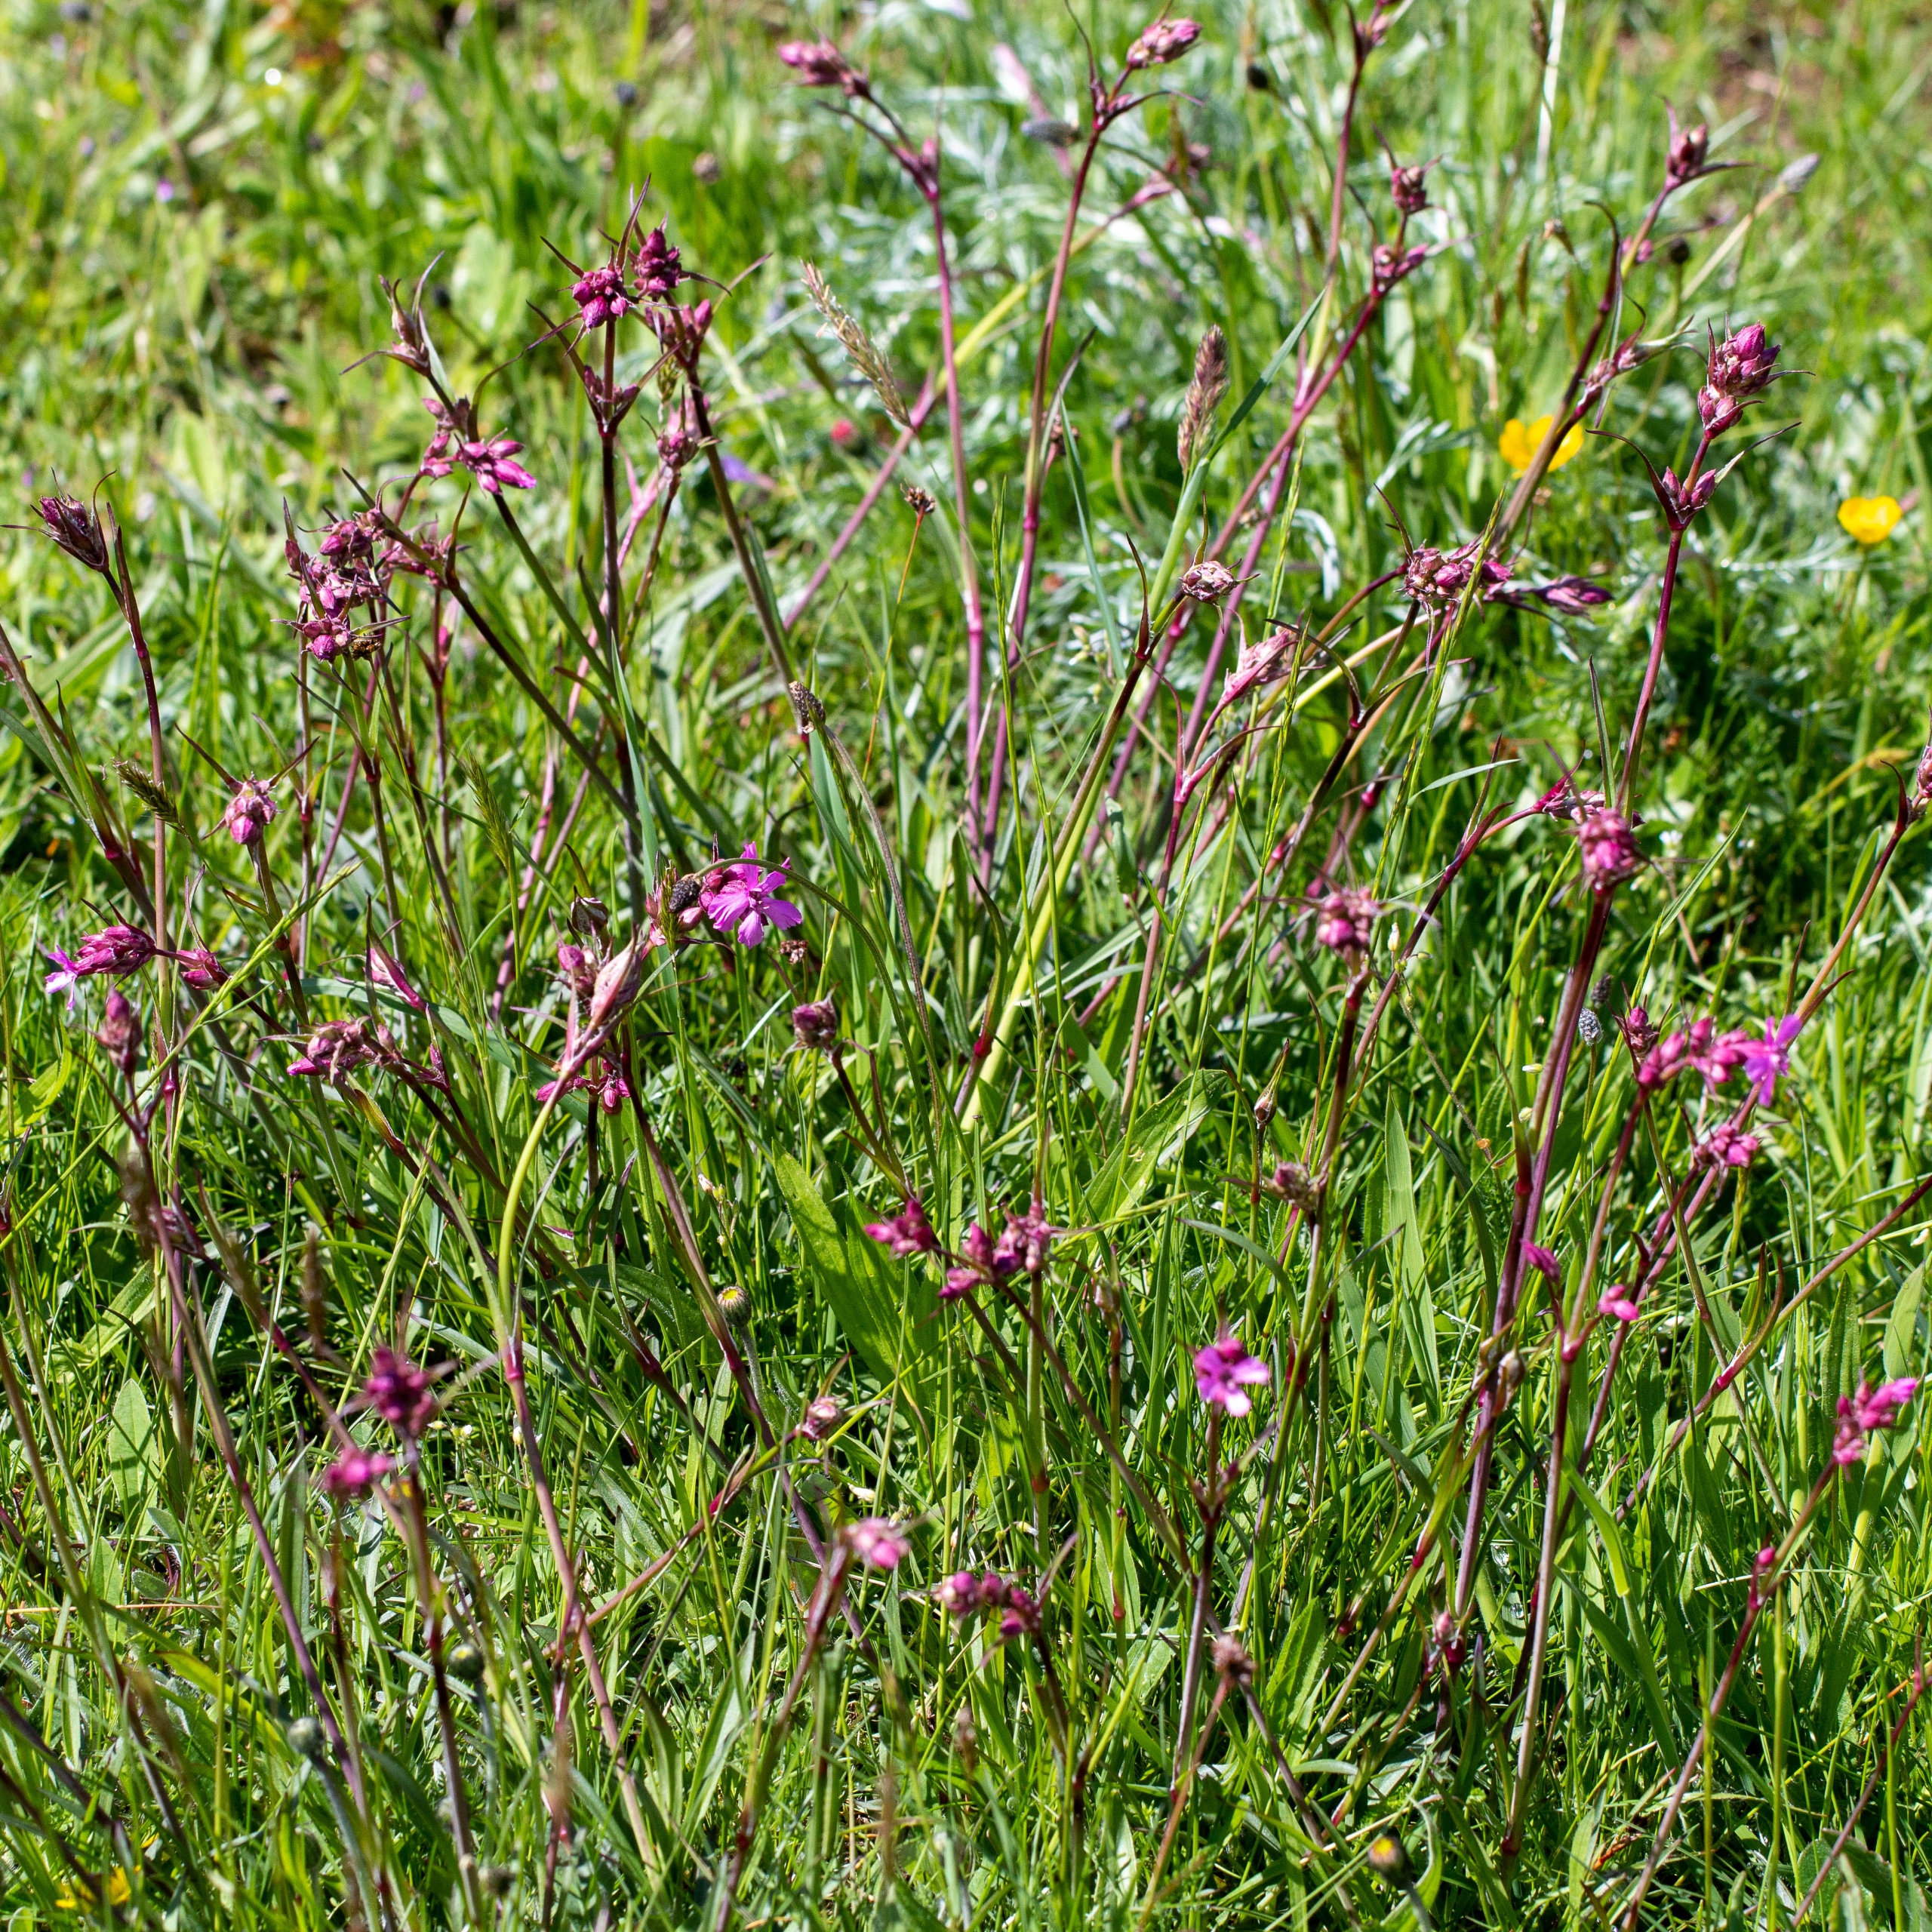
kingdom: Plantae
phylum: Tracheophyta
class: Magnoliopsida
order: Caryophyllales
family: Caryophyllaceae
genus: Viscaria
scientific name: Viscaria vulgaris
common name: Tjærenellike
